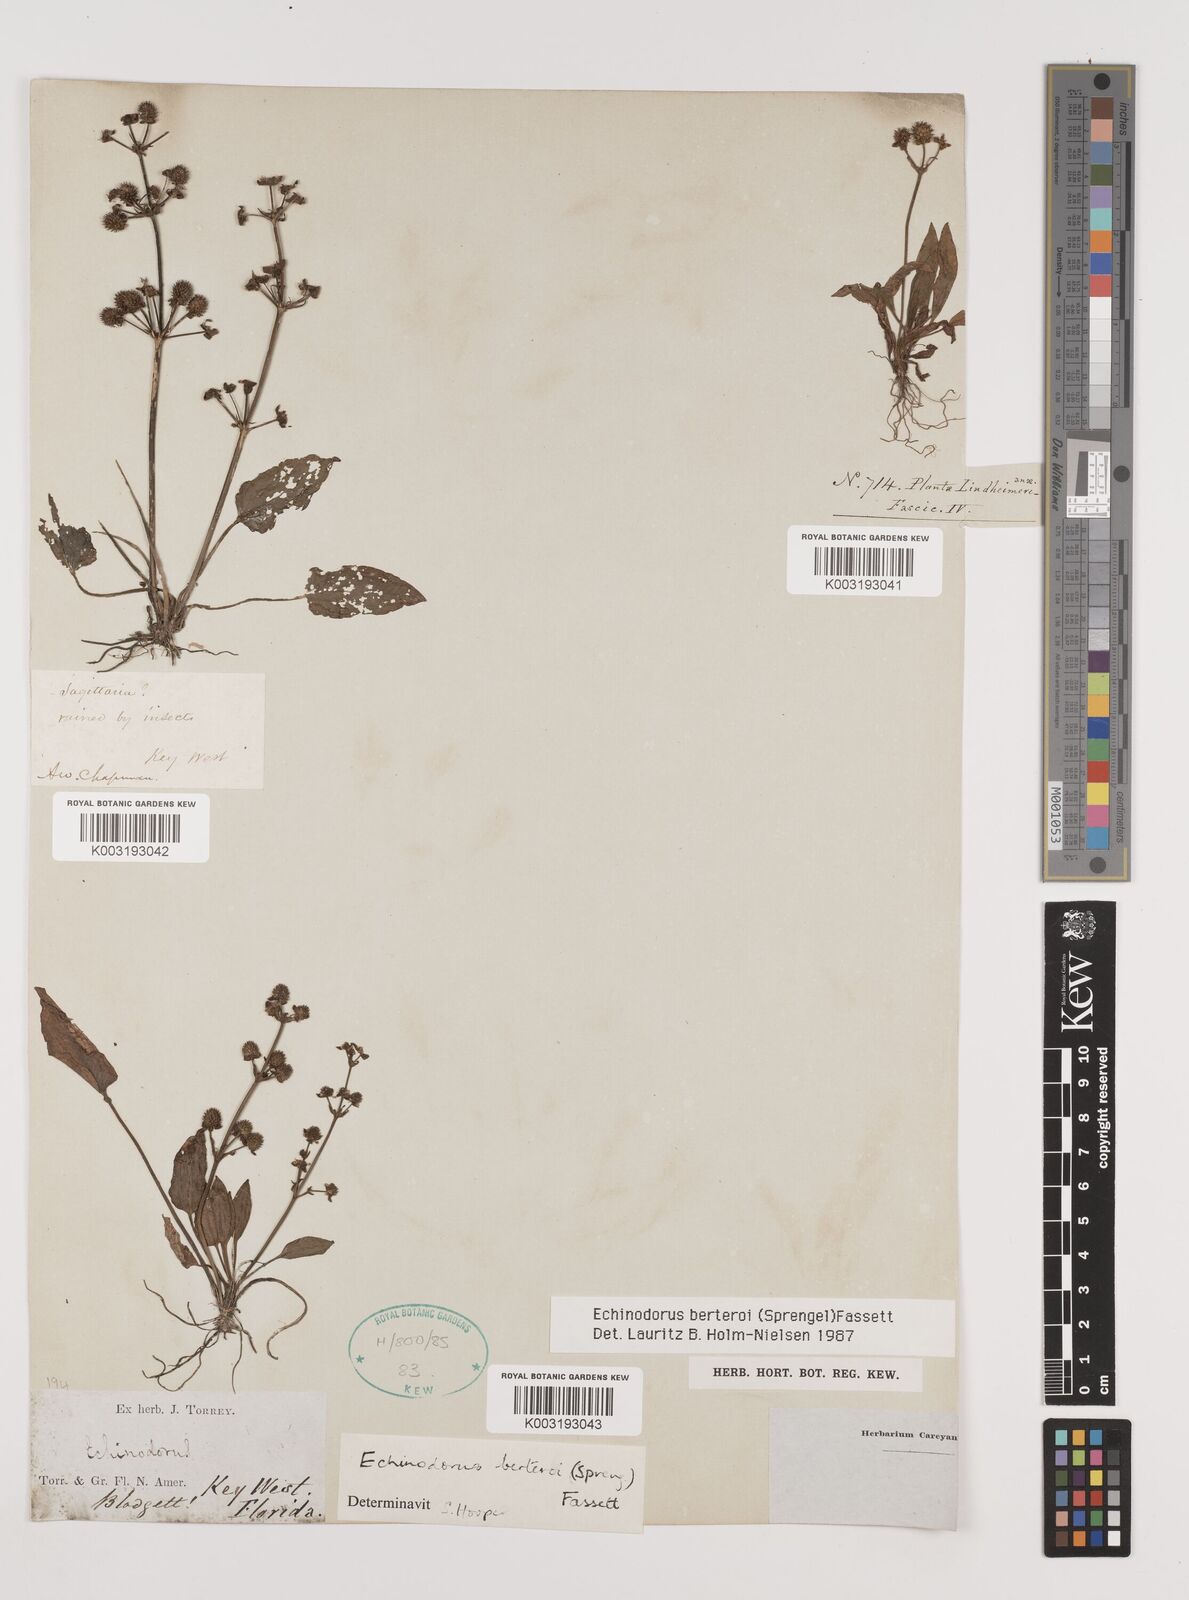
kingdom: Plantae
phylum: Tracheophyta
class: Liliopsida
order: Alismatales
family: Alismataceae
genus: Echinodorus
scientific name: Echinodorus berteroi
